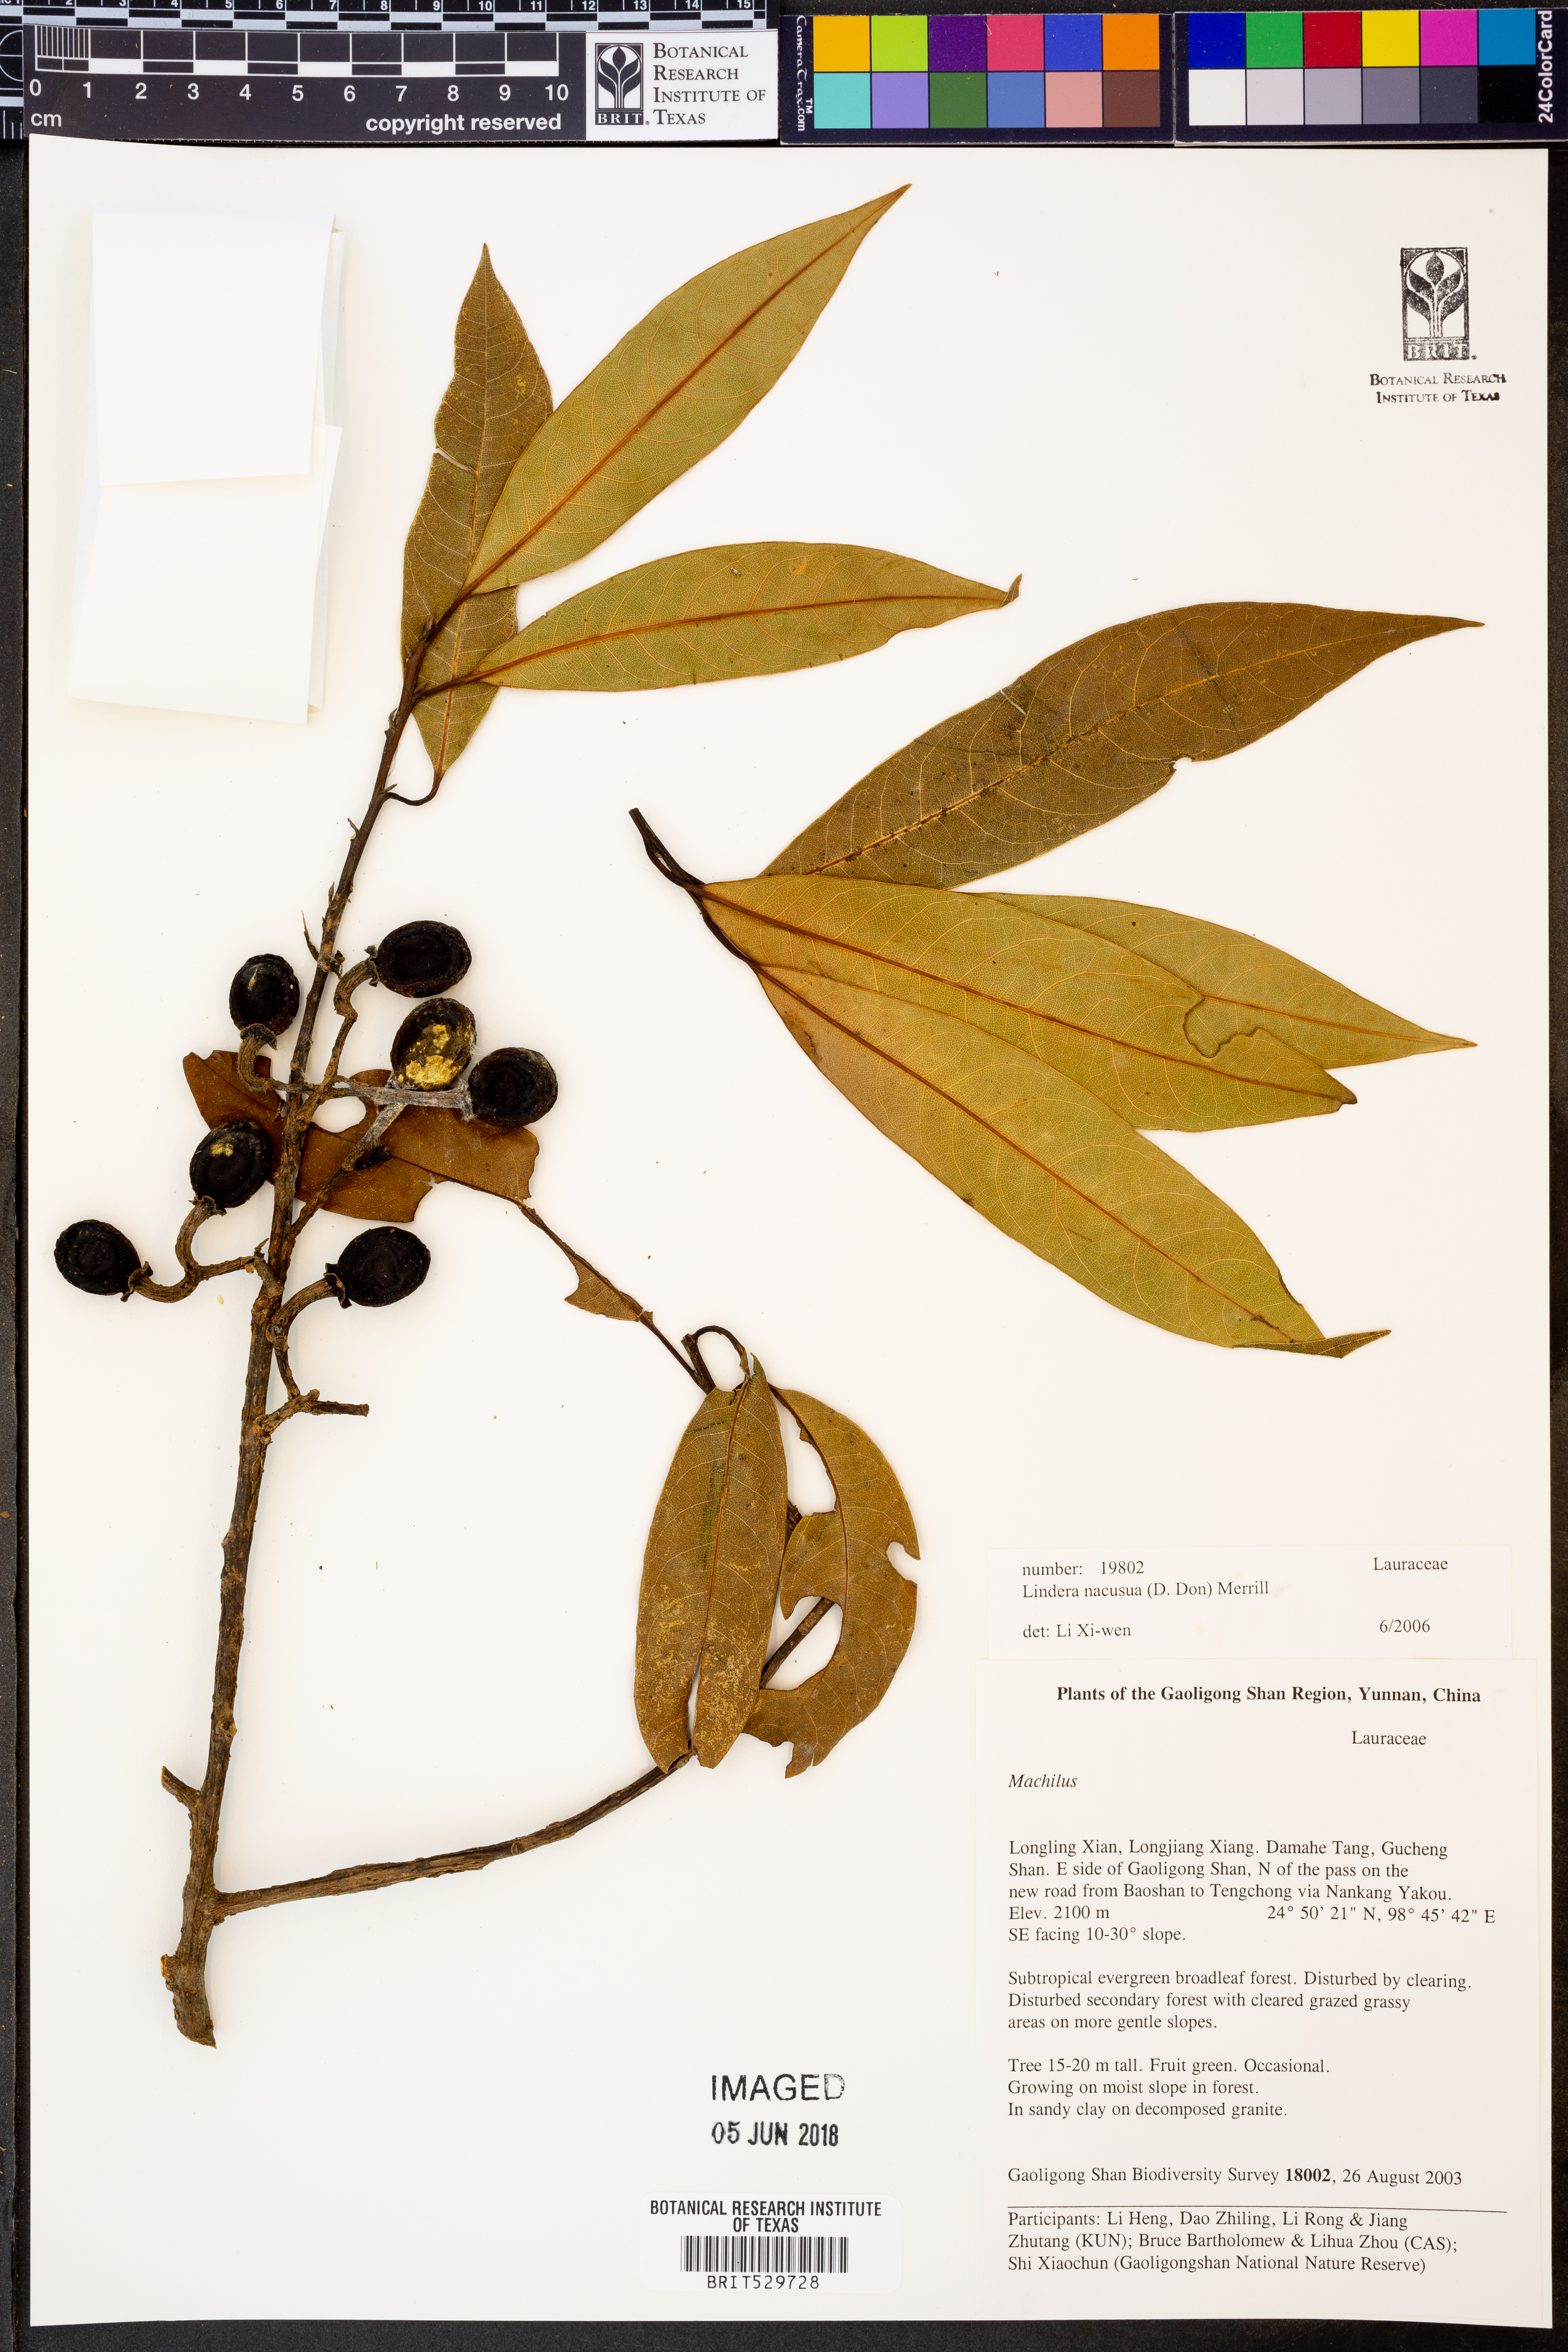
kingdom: Plantae
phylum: Tracheophyta
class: Magnoliopsida
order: Laurales
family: Lauraceae
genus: Litsea
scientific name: Litsea chinpingensis
